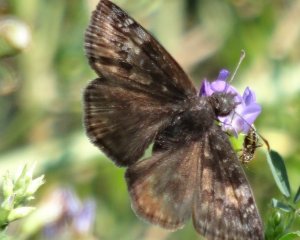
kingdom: Animalia
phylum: Arthropoda
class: Insecta
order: Lepidoptera
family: Hesperiidae
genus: Gesta
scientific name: Gesta
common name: Wild Indigo Duskywing
